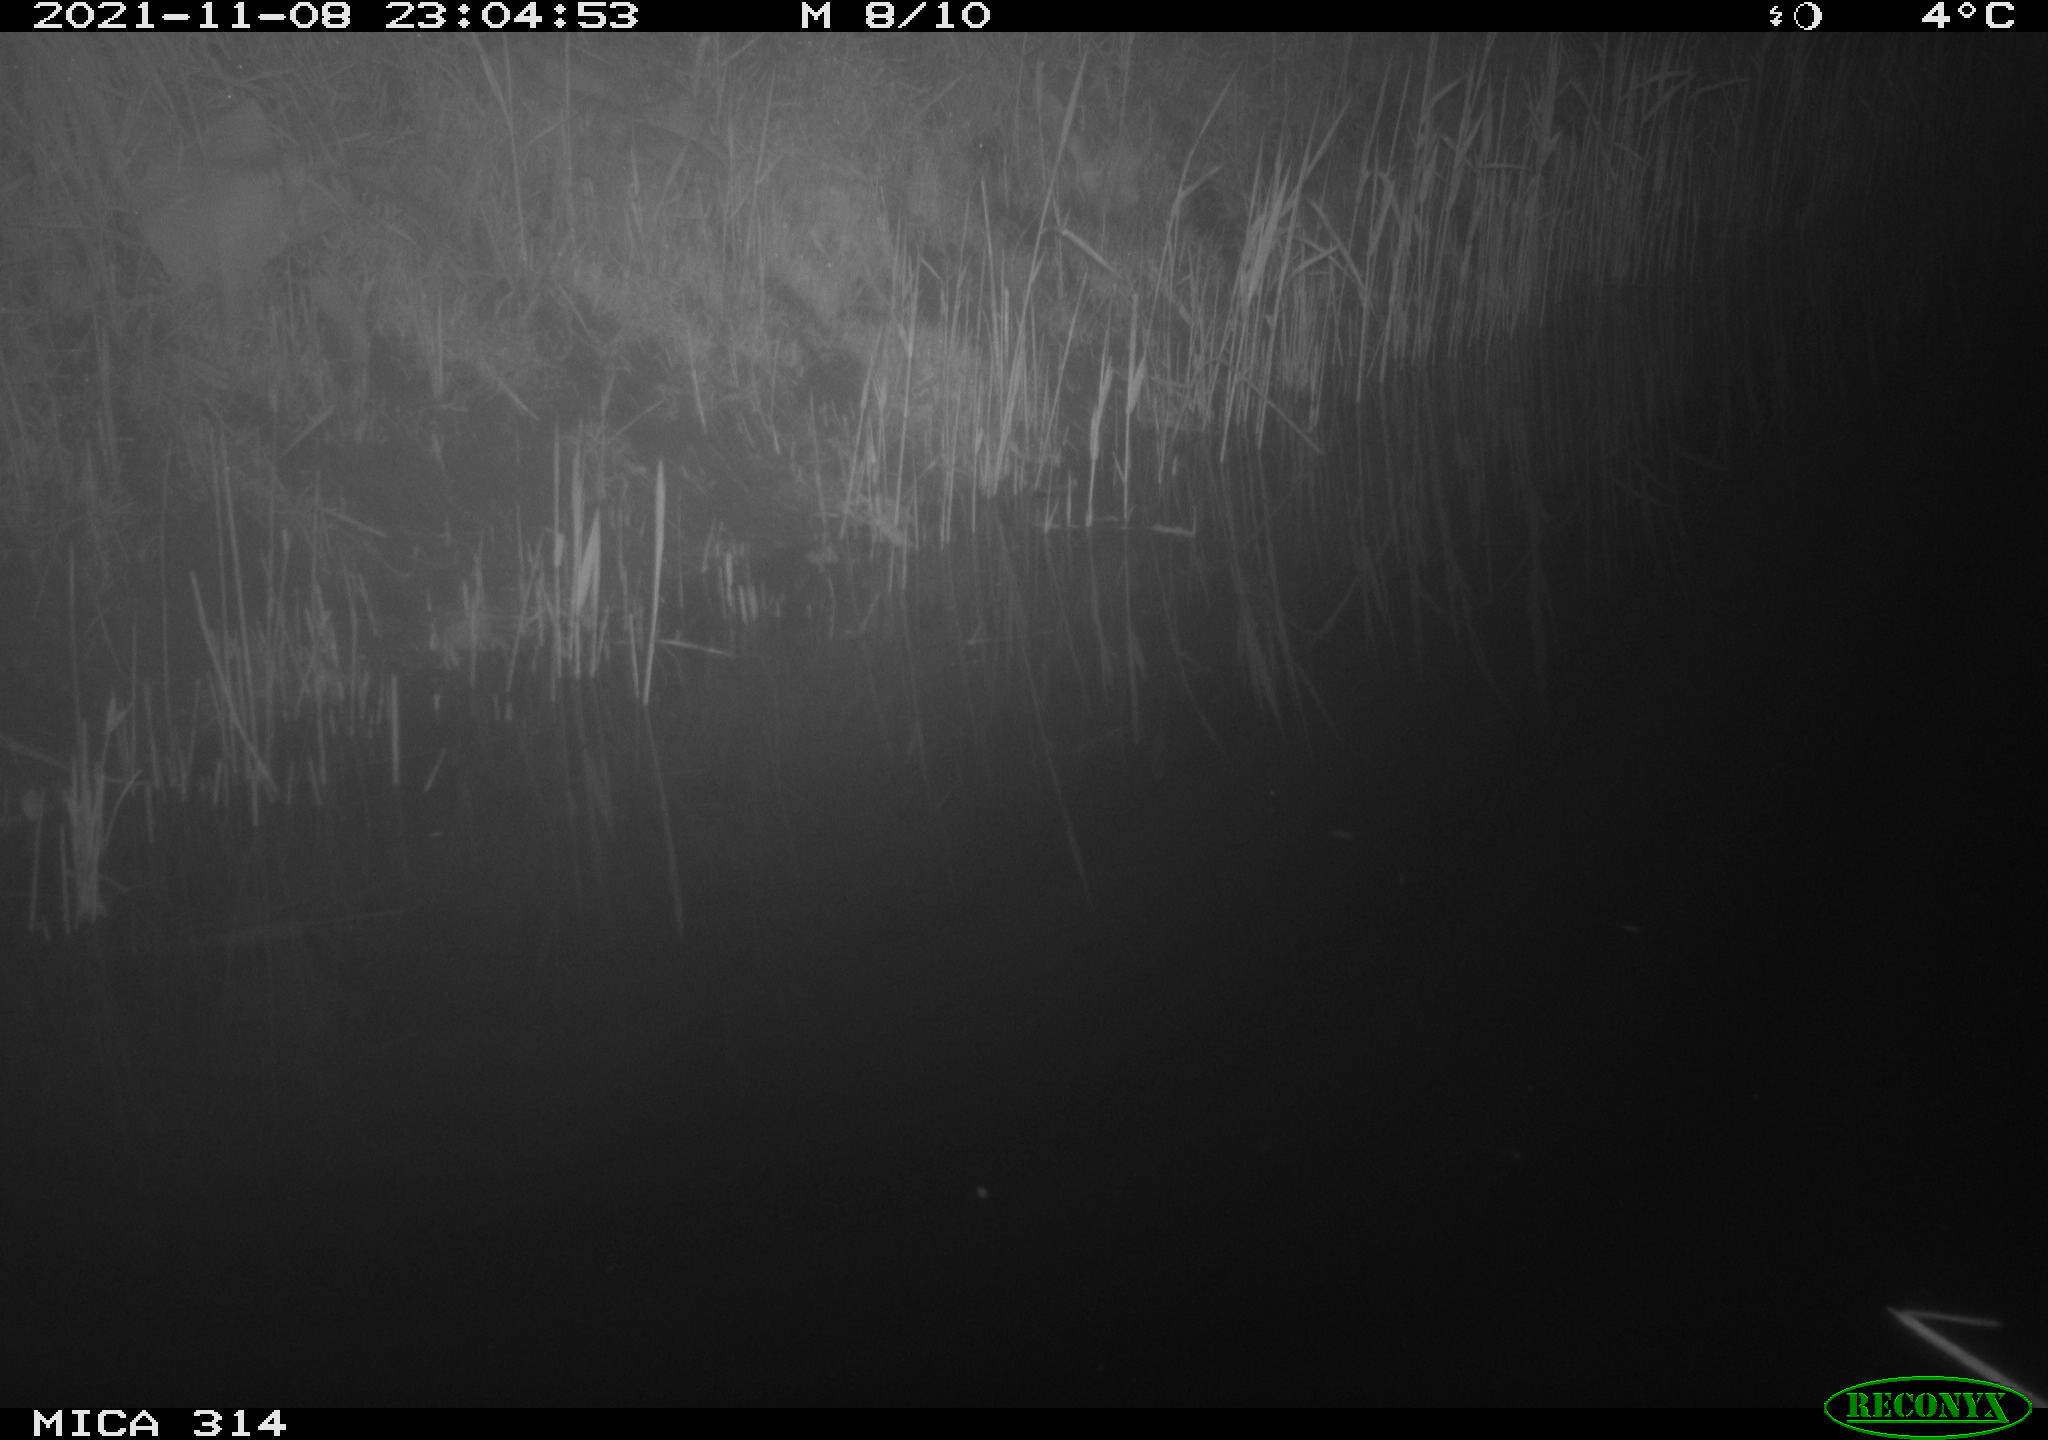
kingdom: Animalia
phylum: Chordata
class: Mammalia
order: Rodentia
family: Muridae
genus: Rattus
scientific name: Rattus norvegicus
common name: Brown rat
